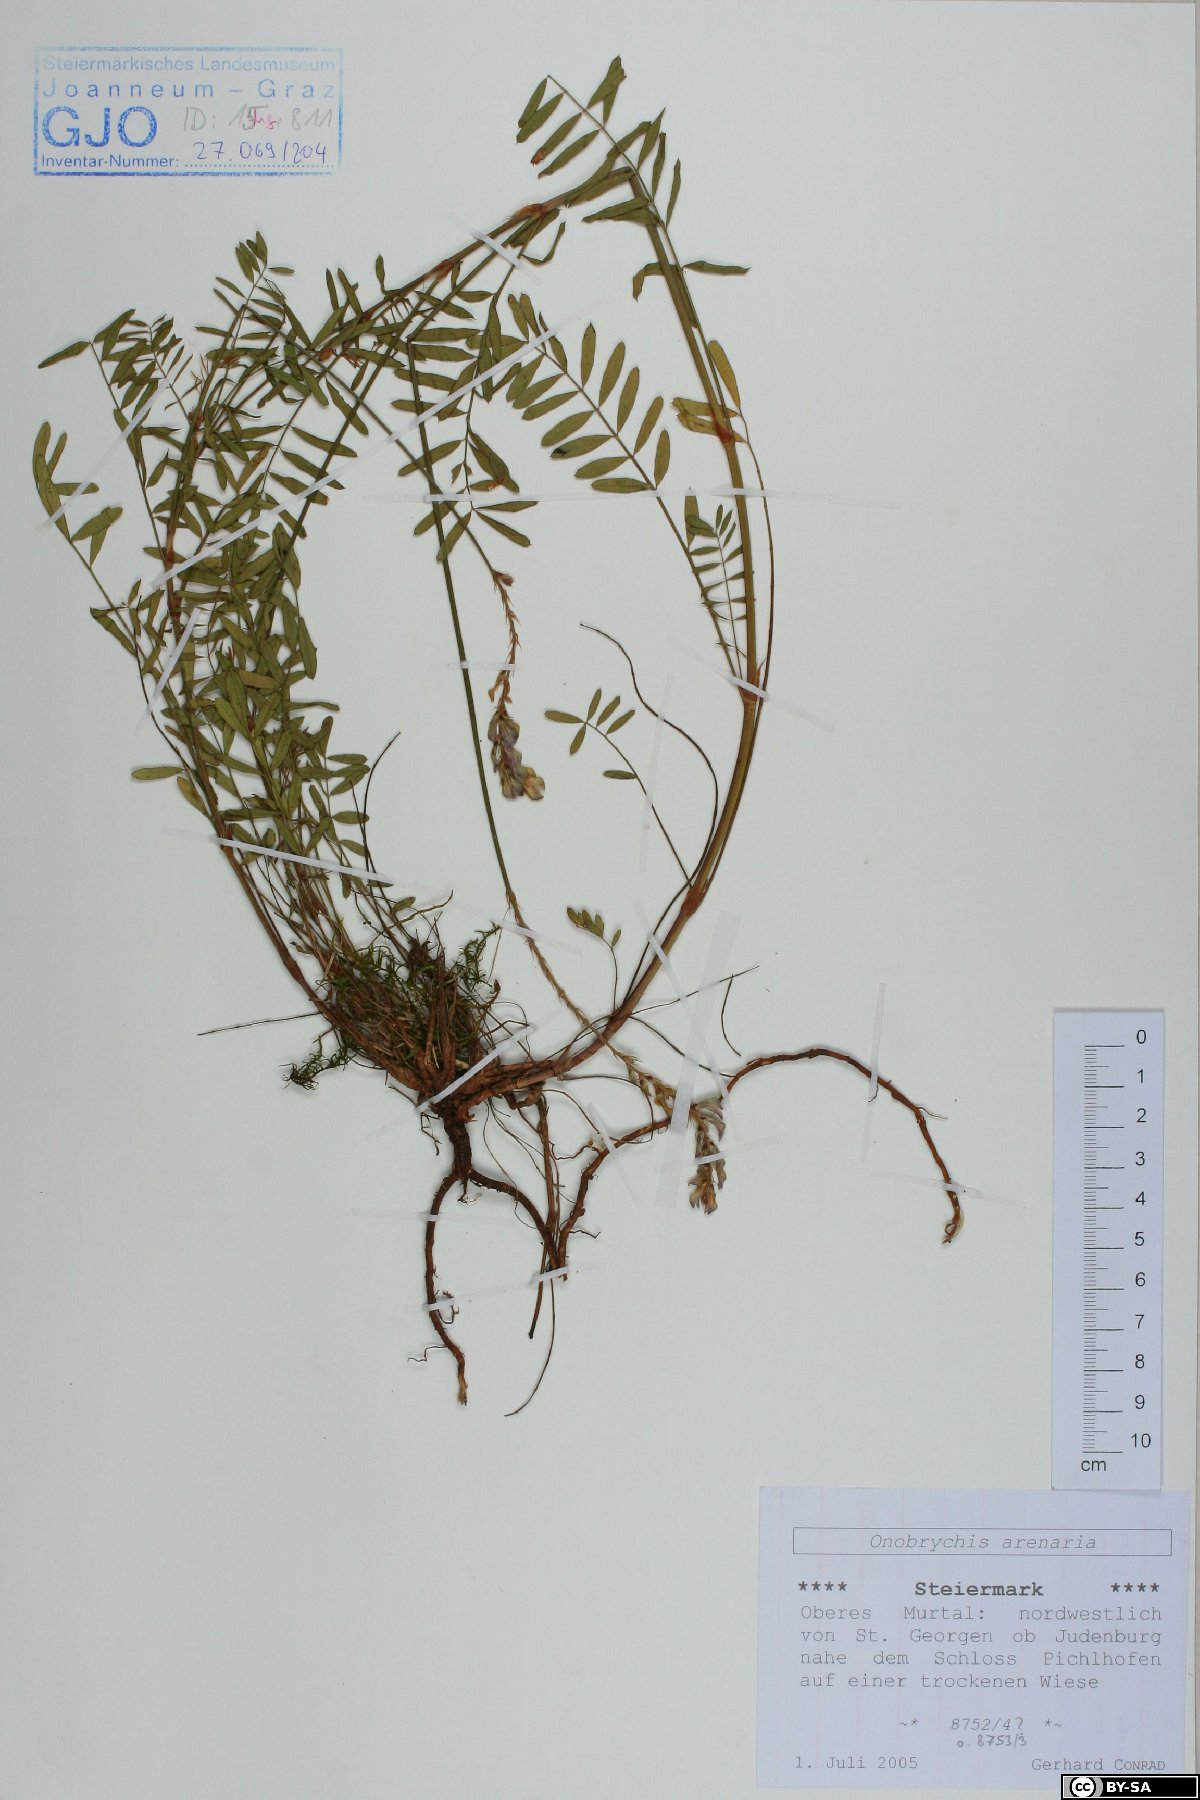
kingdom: Plantae
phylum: Tracheophyta
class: Magnoliopsida
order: Fabales
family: Fabaceae
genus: Onobrychis
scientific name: Onobrychis arenaria
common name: Sand esparcet
